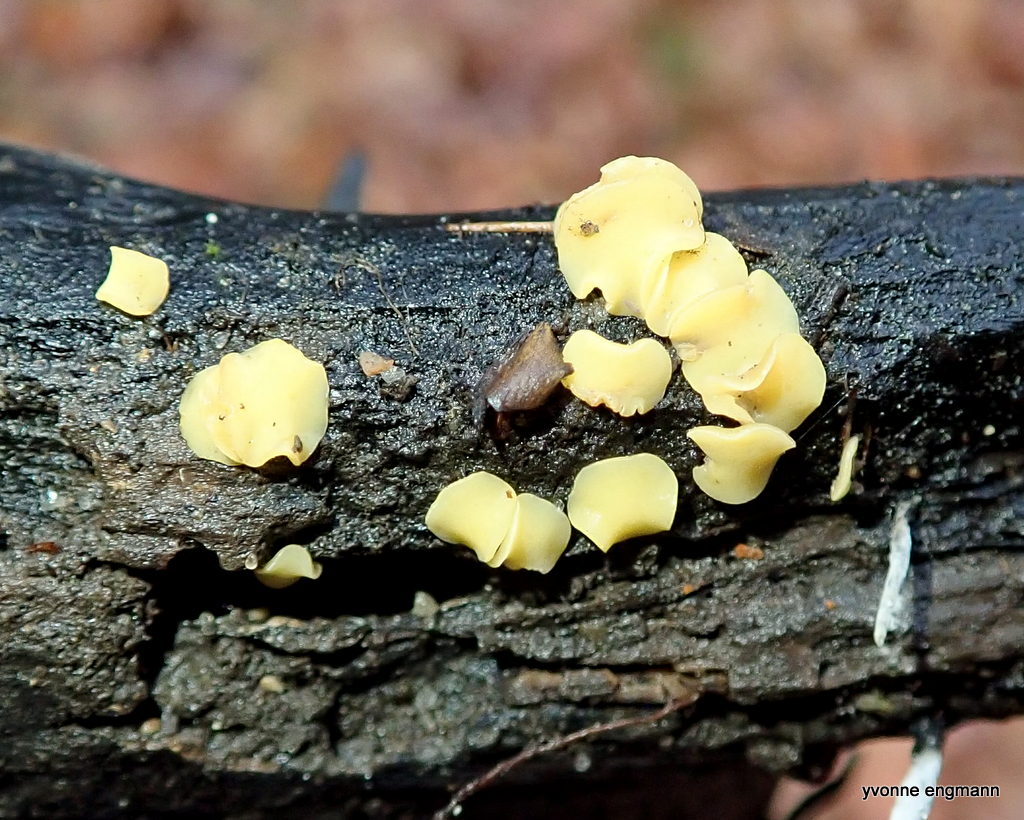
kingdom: Fungi
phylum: Ascomycota
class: Leotiomycetes
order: Helotiales
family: Helotiaceae
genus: Hymenoscyphus
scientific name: Hymenoscyphus
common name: stilkskive
